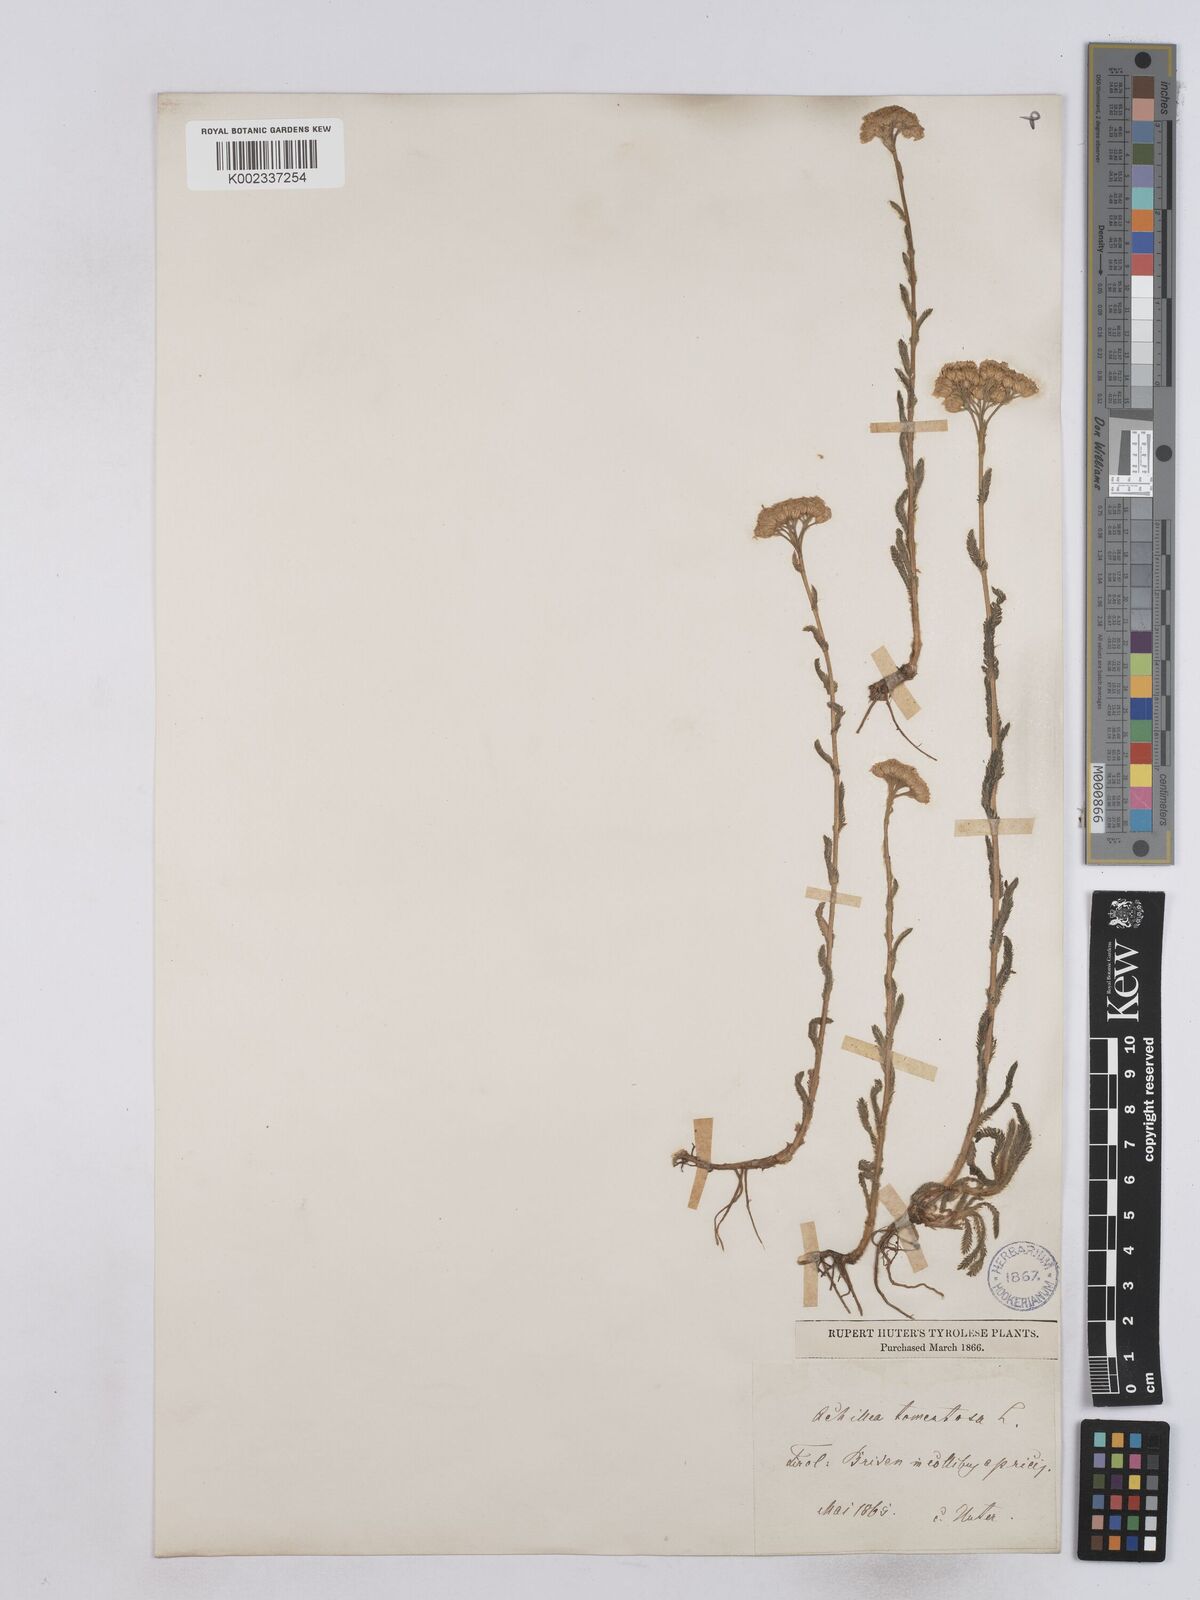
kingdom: Plantae
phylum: Tracheophyta
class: Magnoliopsida
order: Asterales
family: Asteraceae
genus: Achillea
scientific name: Achillea tomentosa
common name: Yellow milfoil
